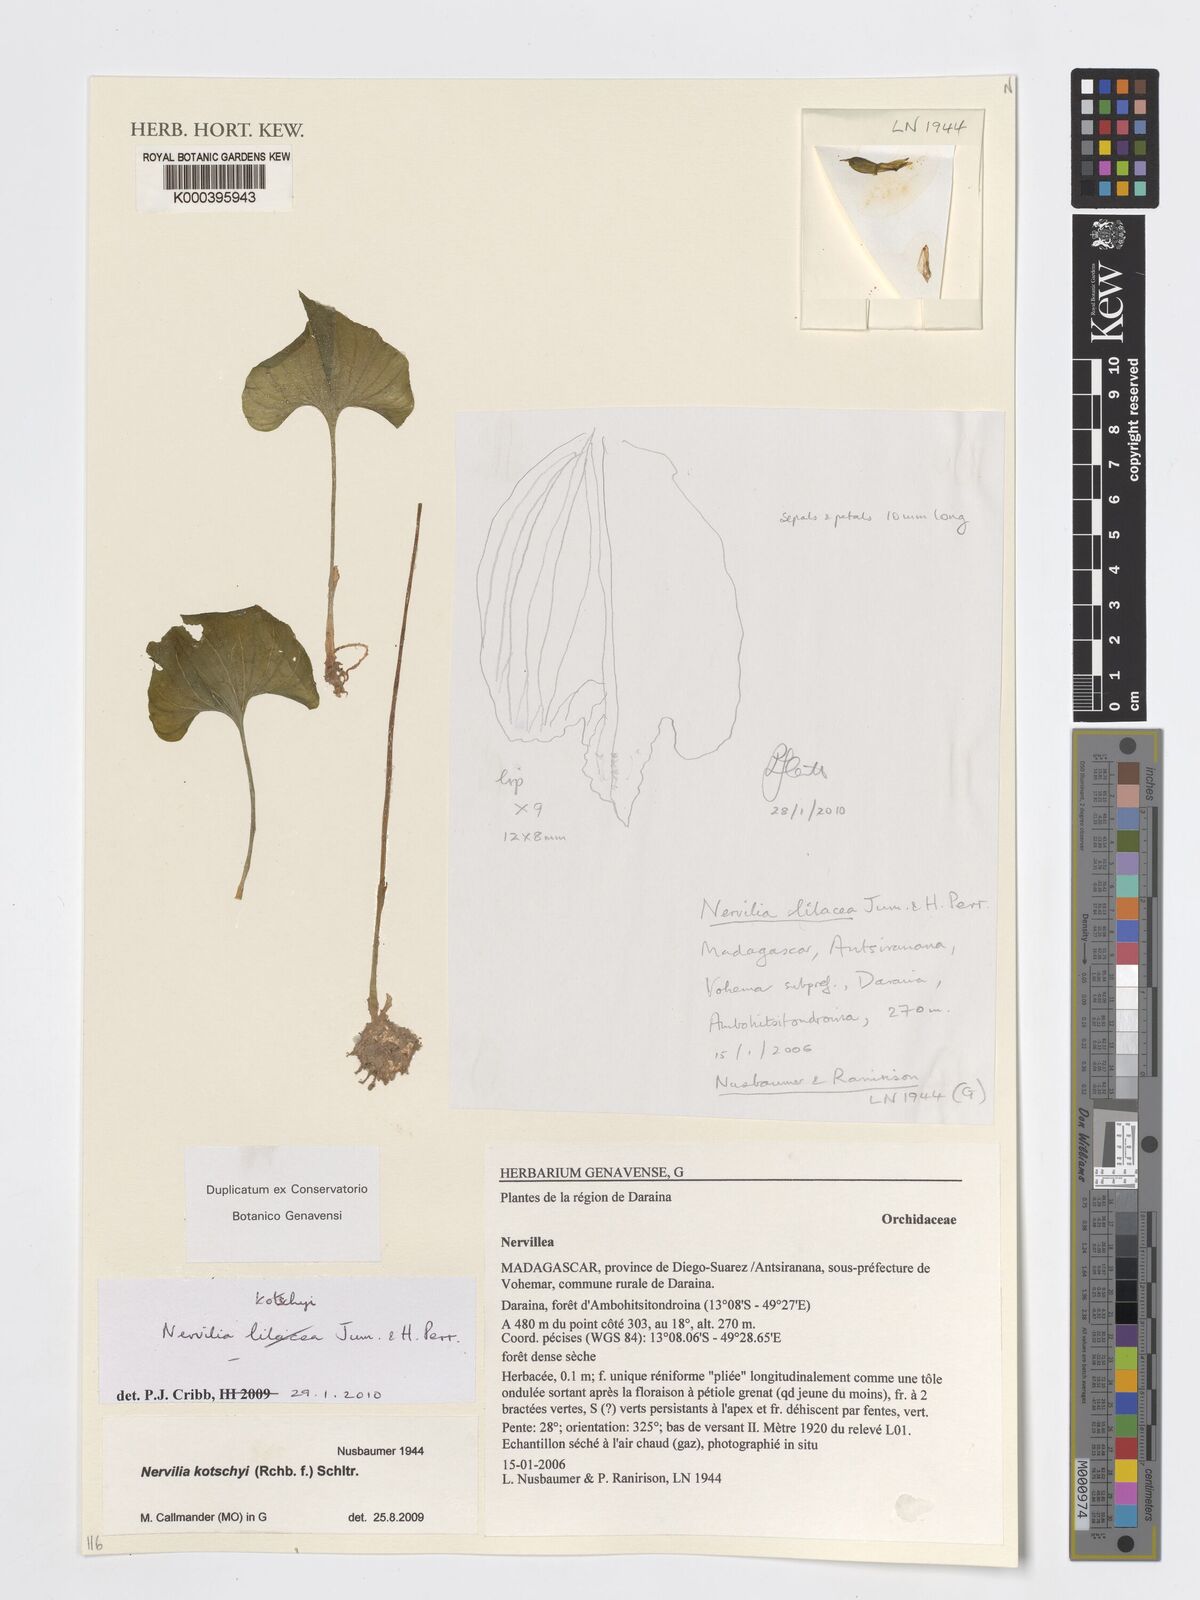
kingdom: Plantae
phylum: Tracheophyta
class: Liliopsida
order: Asparagales
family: Orchidaceae
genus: Nervilia
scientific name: Nervilia lilacea
